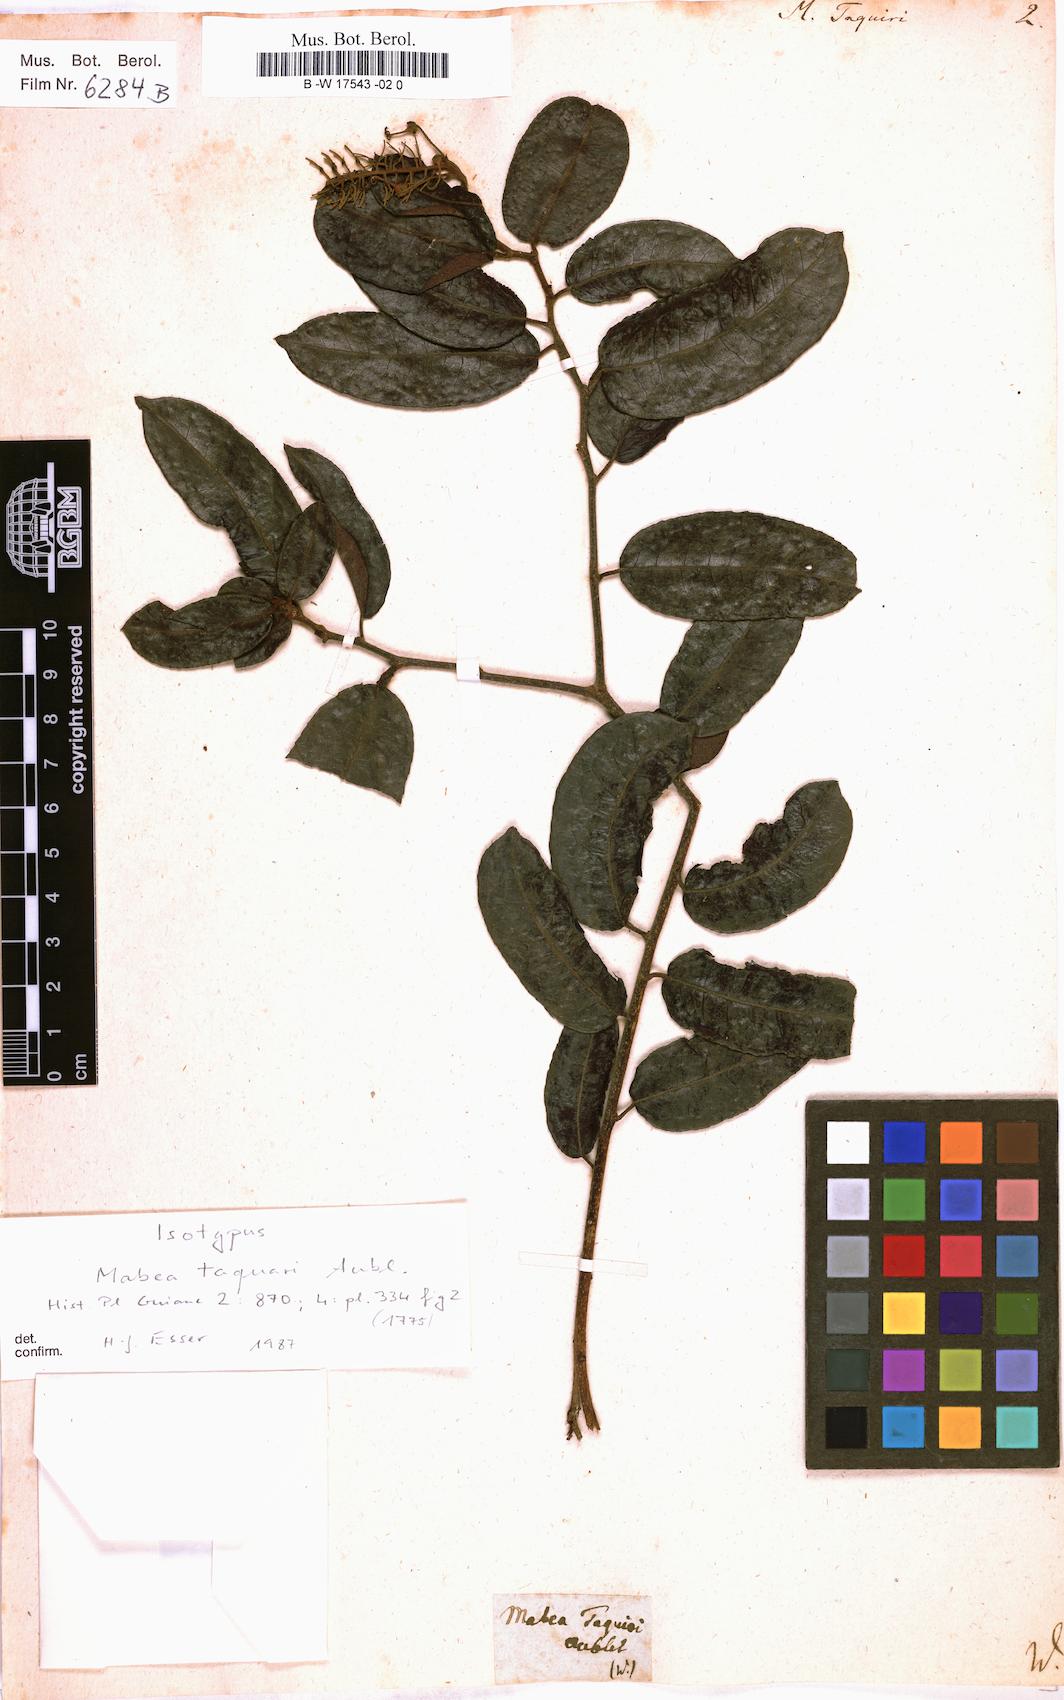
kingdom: Plantae
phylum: Tracheophyta
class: Magnoliopsida
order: Malpighiales
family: Euphorbiaceae
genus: Mabea
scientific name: Mabea taquari
